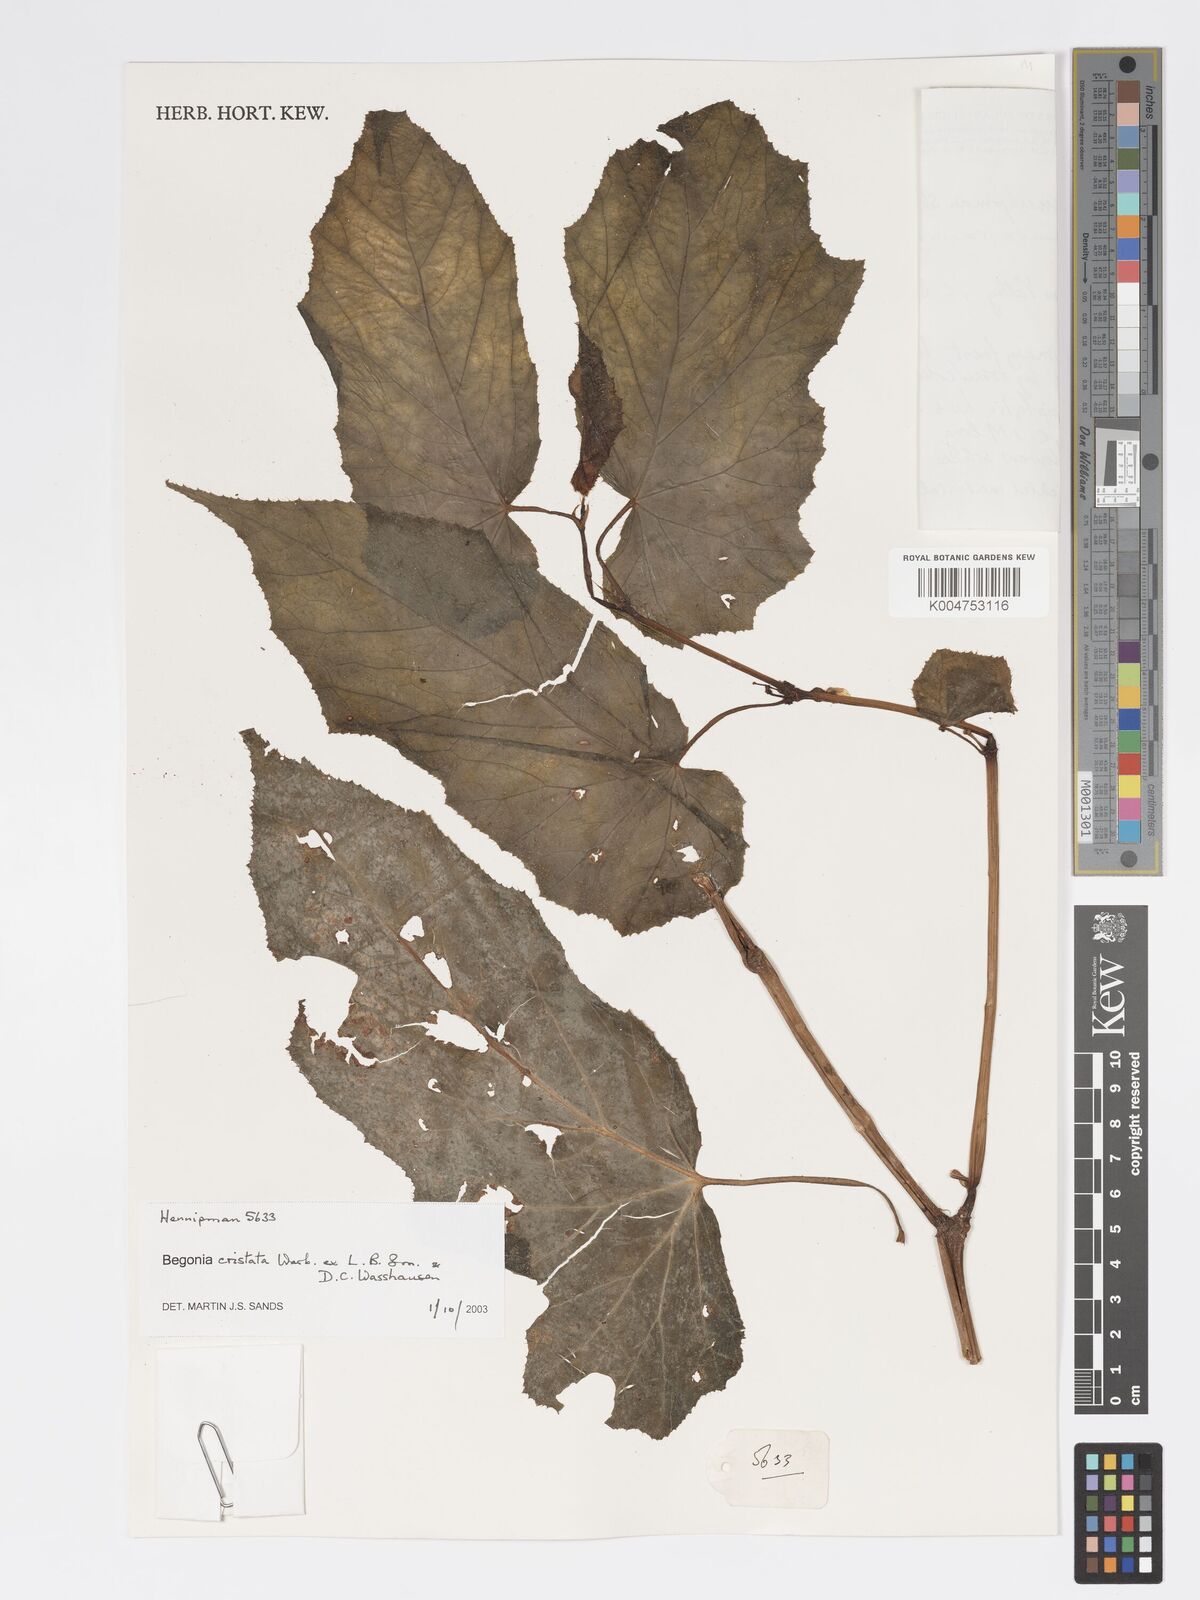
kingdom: Plantae
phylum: Tracheophyta
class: Magnoliopsida
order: Cucurbitales
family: Begoniaceae
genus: Begonia
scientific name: Begonia
